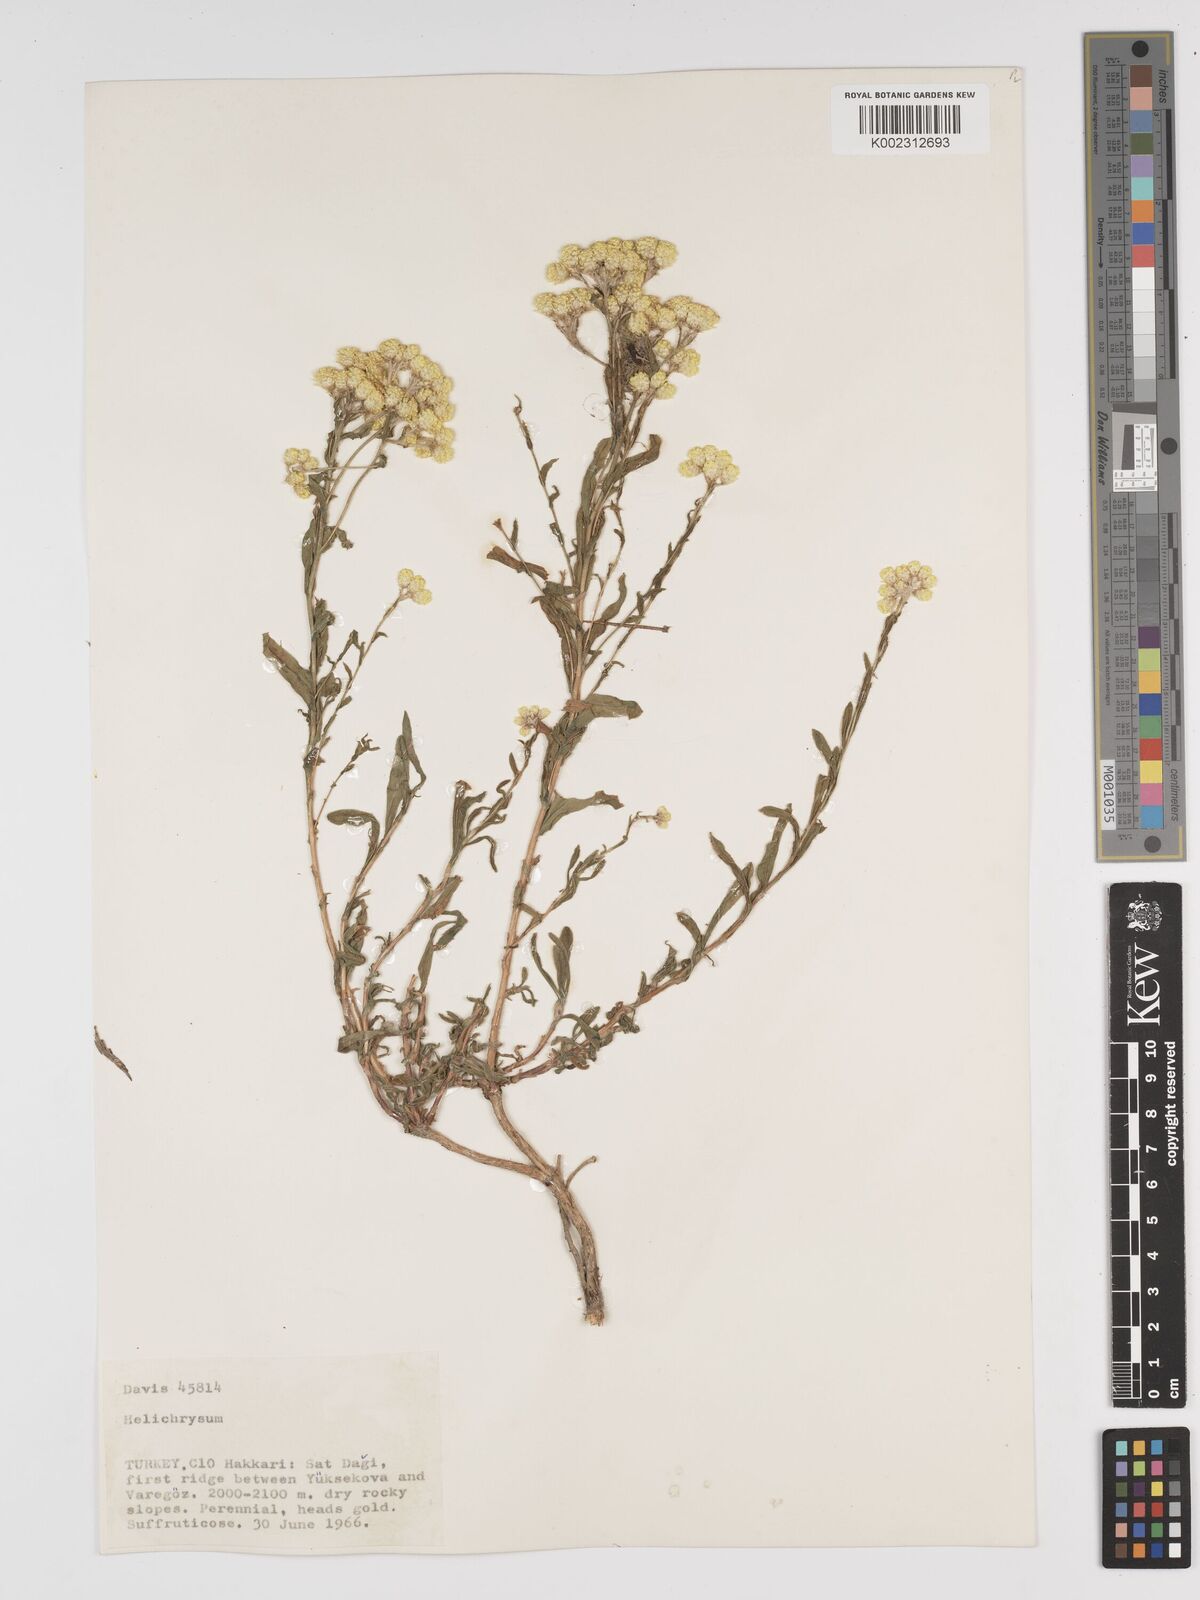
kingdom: Plantae
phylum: Tracheophyta
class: Magnoliopsida
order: Asterales
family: Asteraceae
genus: Helichrysum
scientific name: Helichrysum armenium
